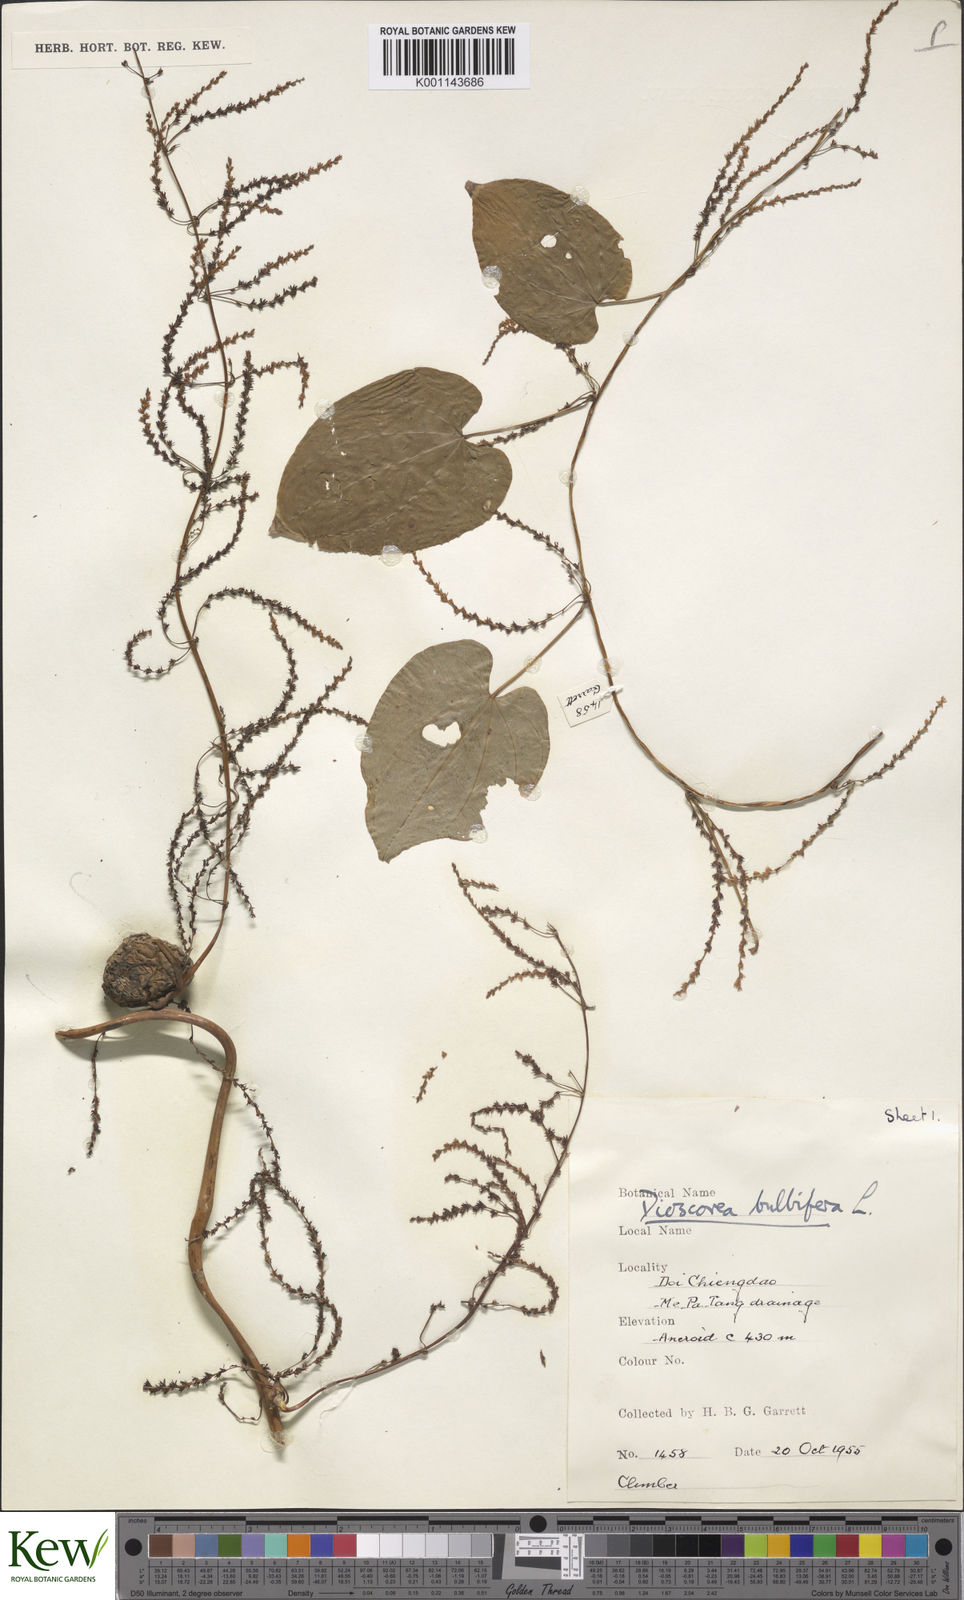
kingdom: Plantae
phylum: Tracheophyta
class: Liliopsida
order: Dioscoreales
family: Dioscoreaceae
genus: Dioscorea
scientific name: Dioscorea bulbifera
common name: Air yam
